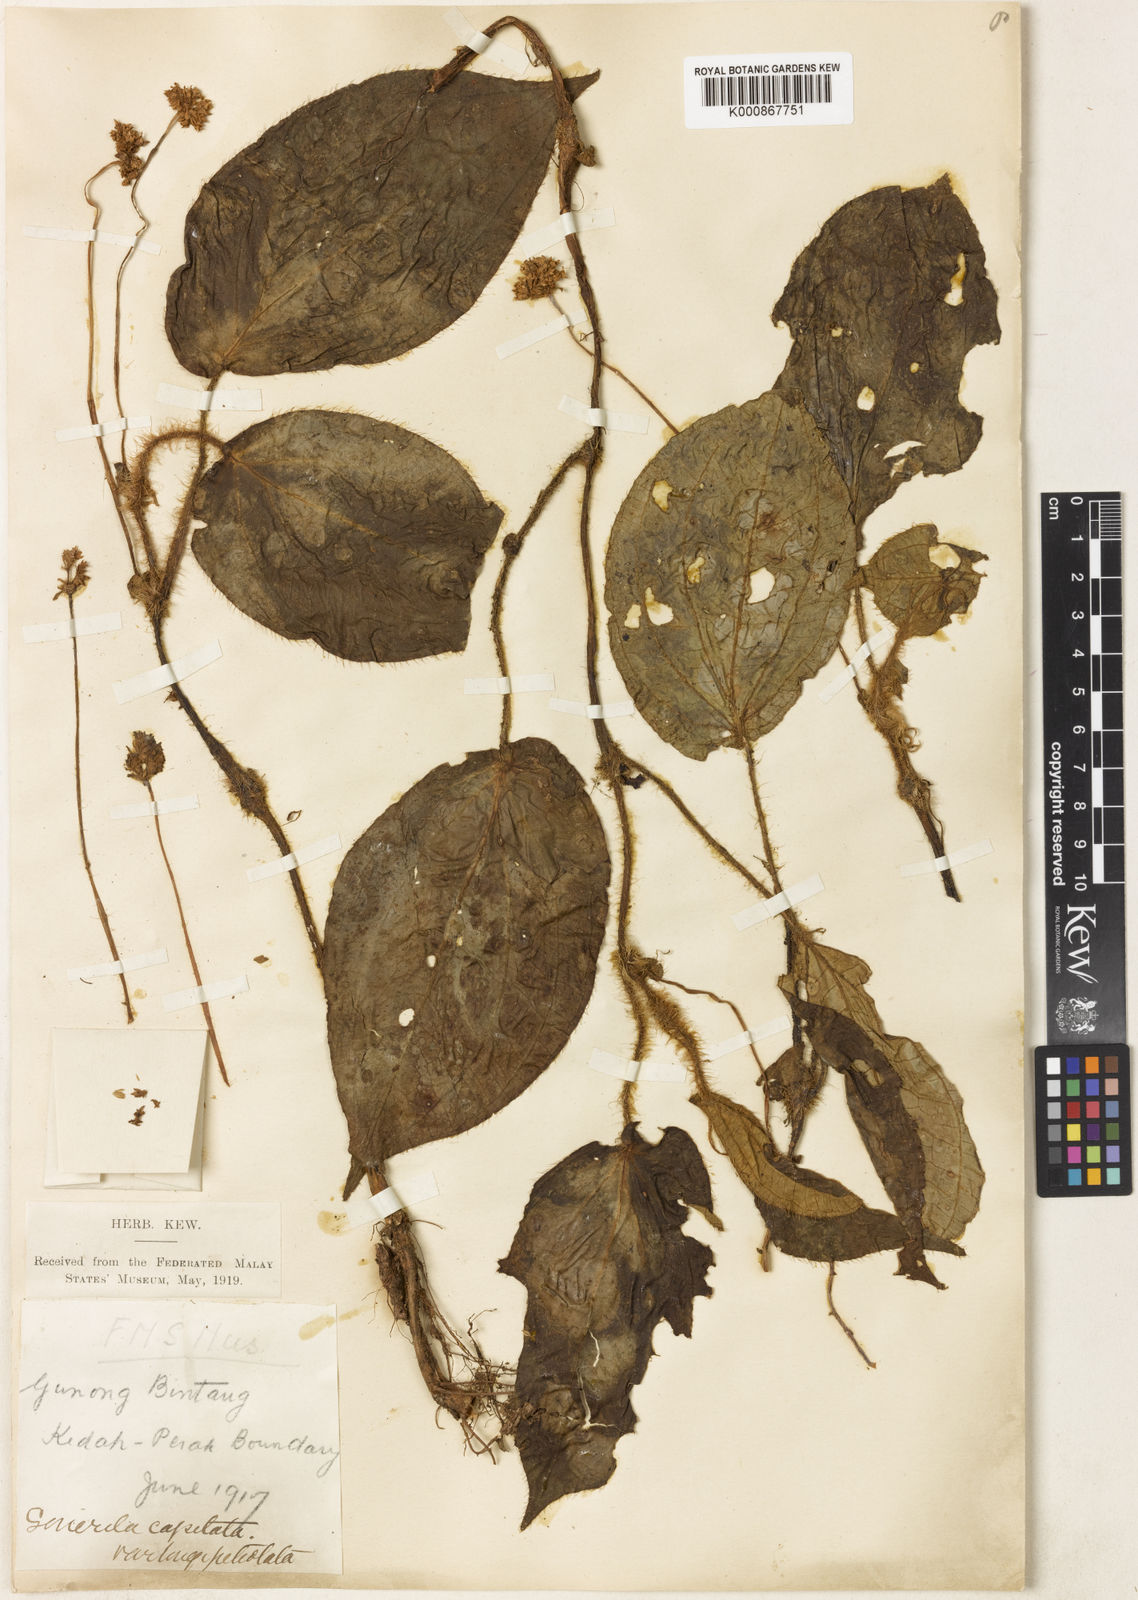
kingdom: Plantae
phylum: Tracheophyta
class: Magnoliopsida
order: Myrtales
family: Melastomataceae
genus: Sonerila
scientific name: Sonerila moluccana
